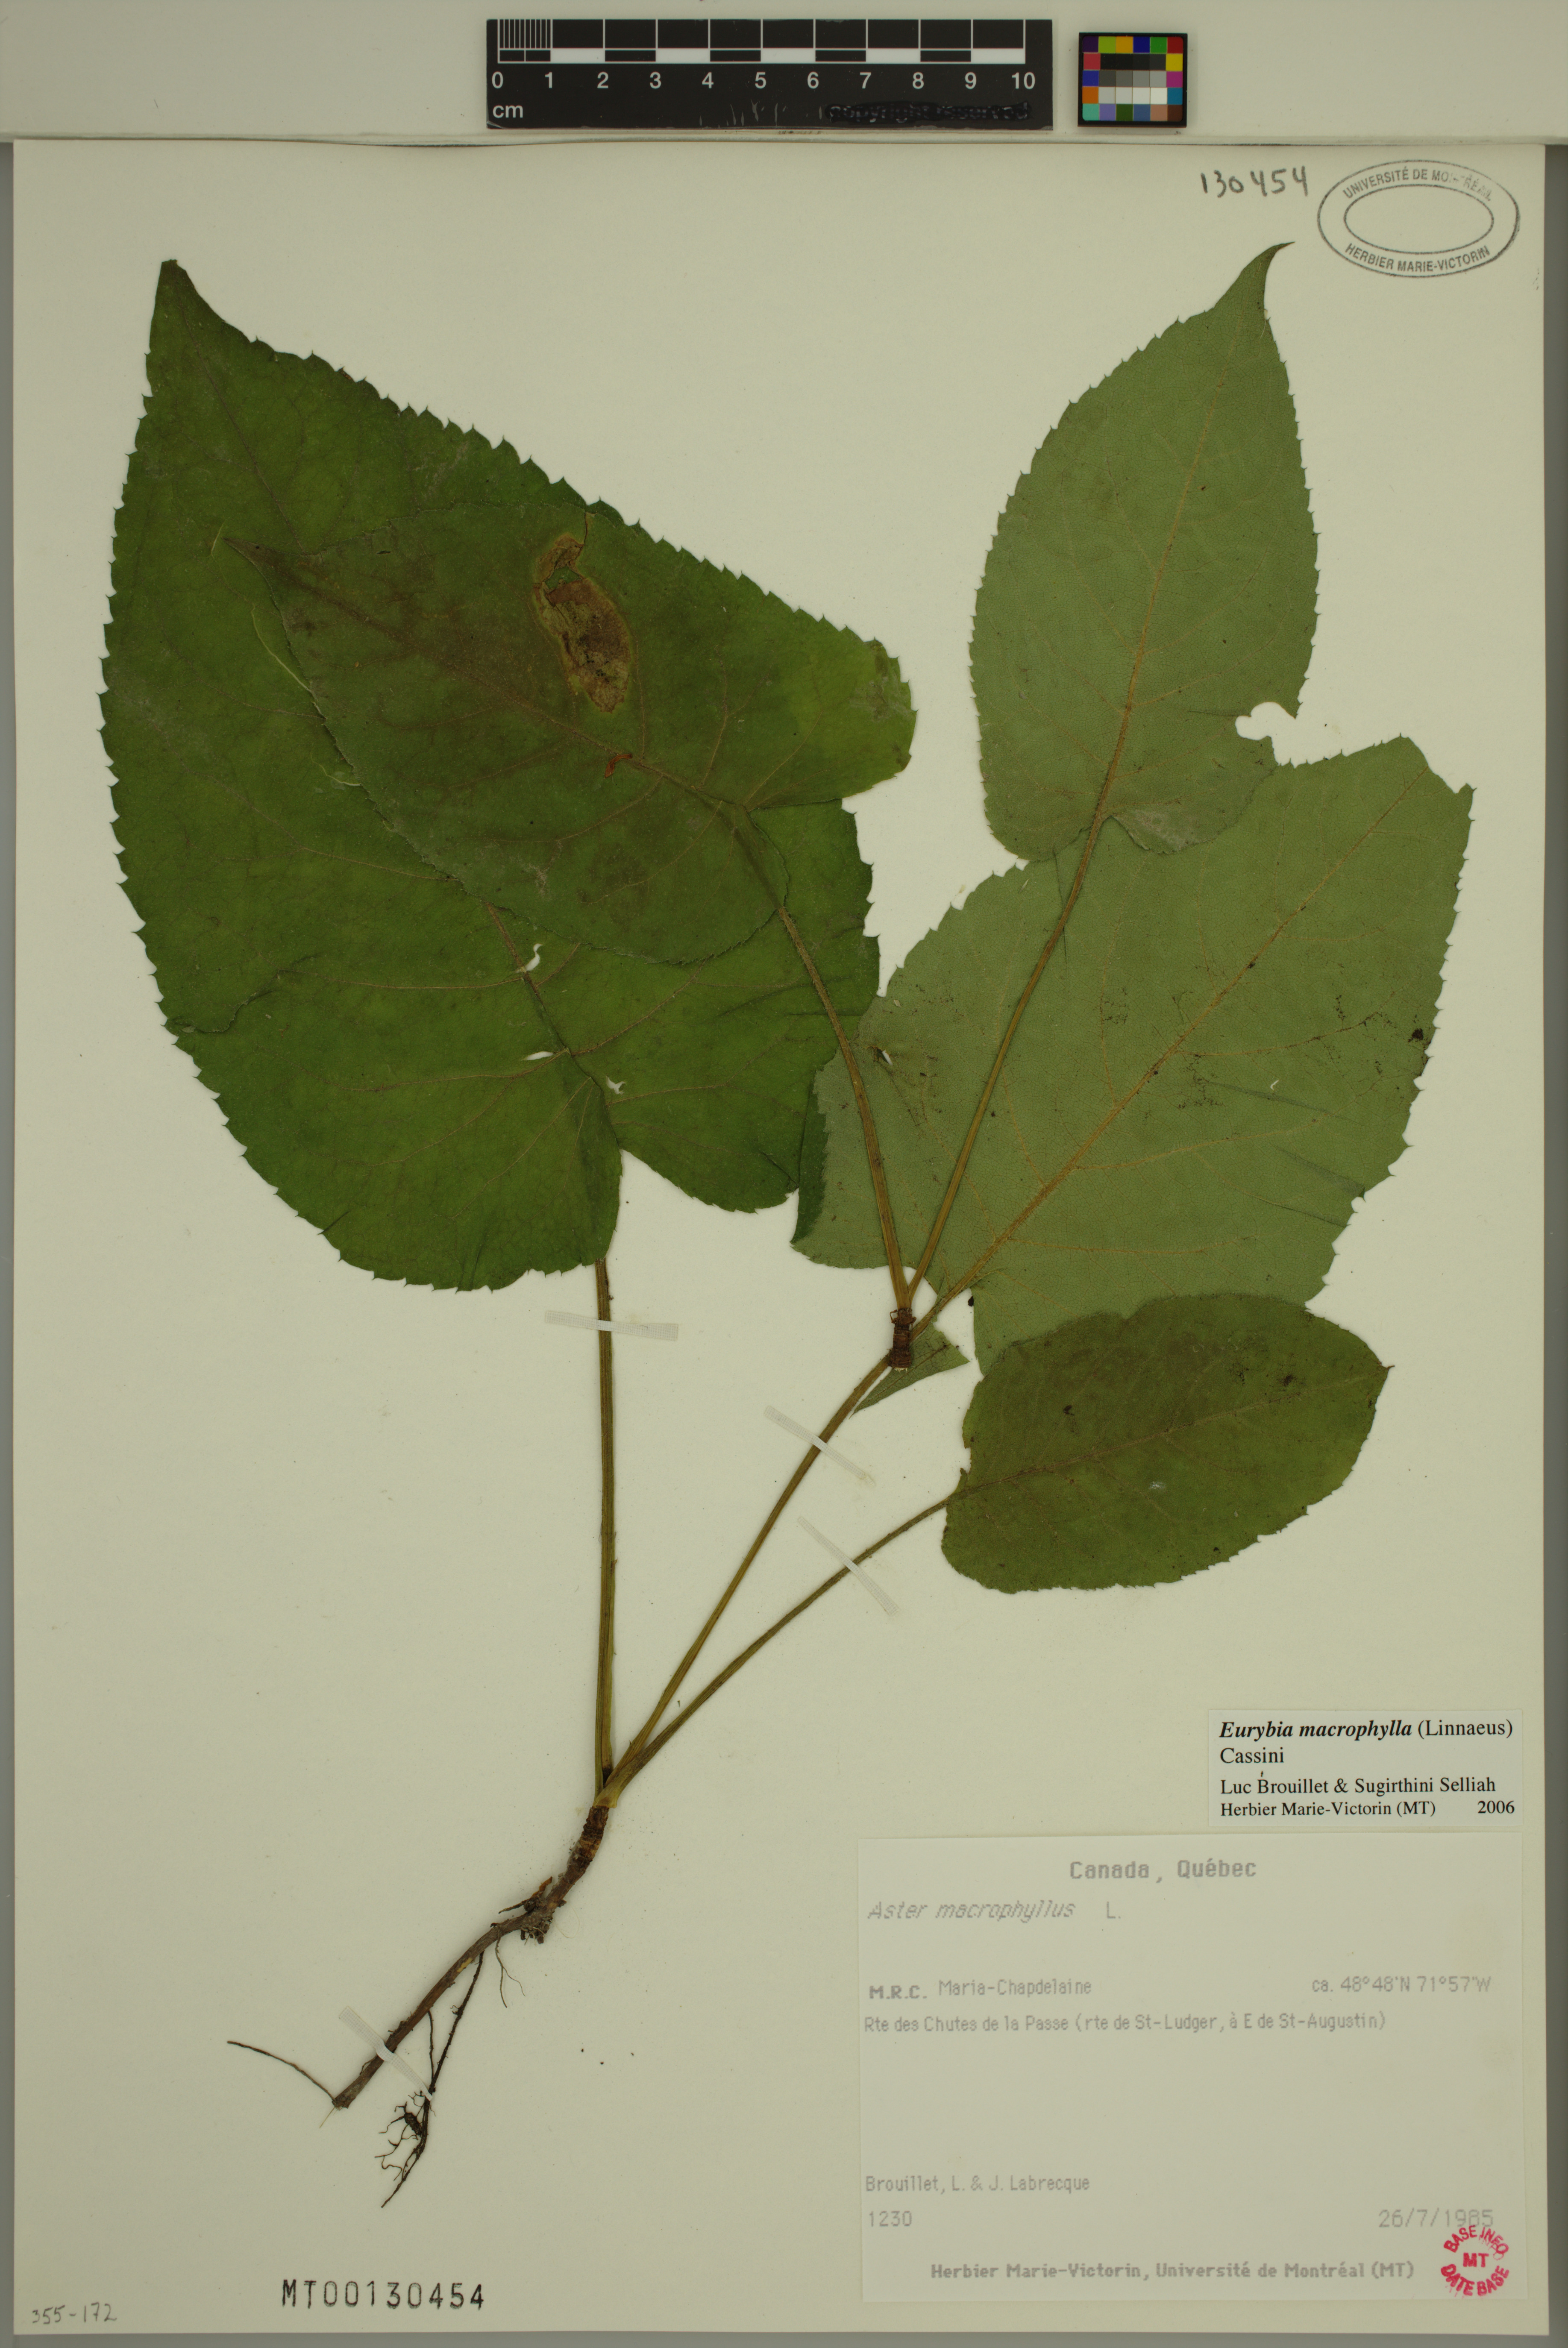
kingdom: Plantae
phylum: Tracheophyta
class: Magnoliopsida
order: Asterales
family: Asteraceae
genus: Eurybia
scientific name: Eurybia macrophylla
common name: Big-leaved aster
